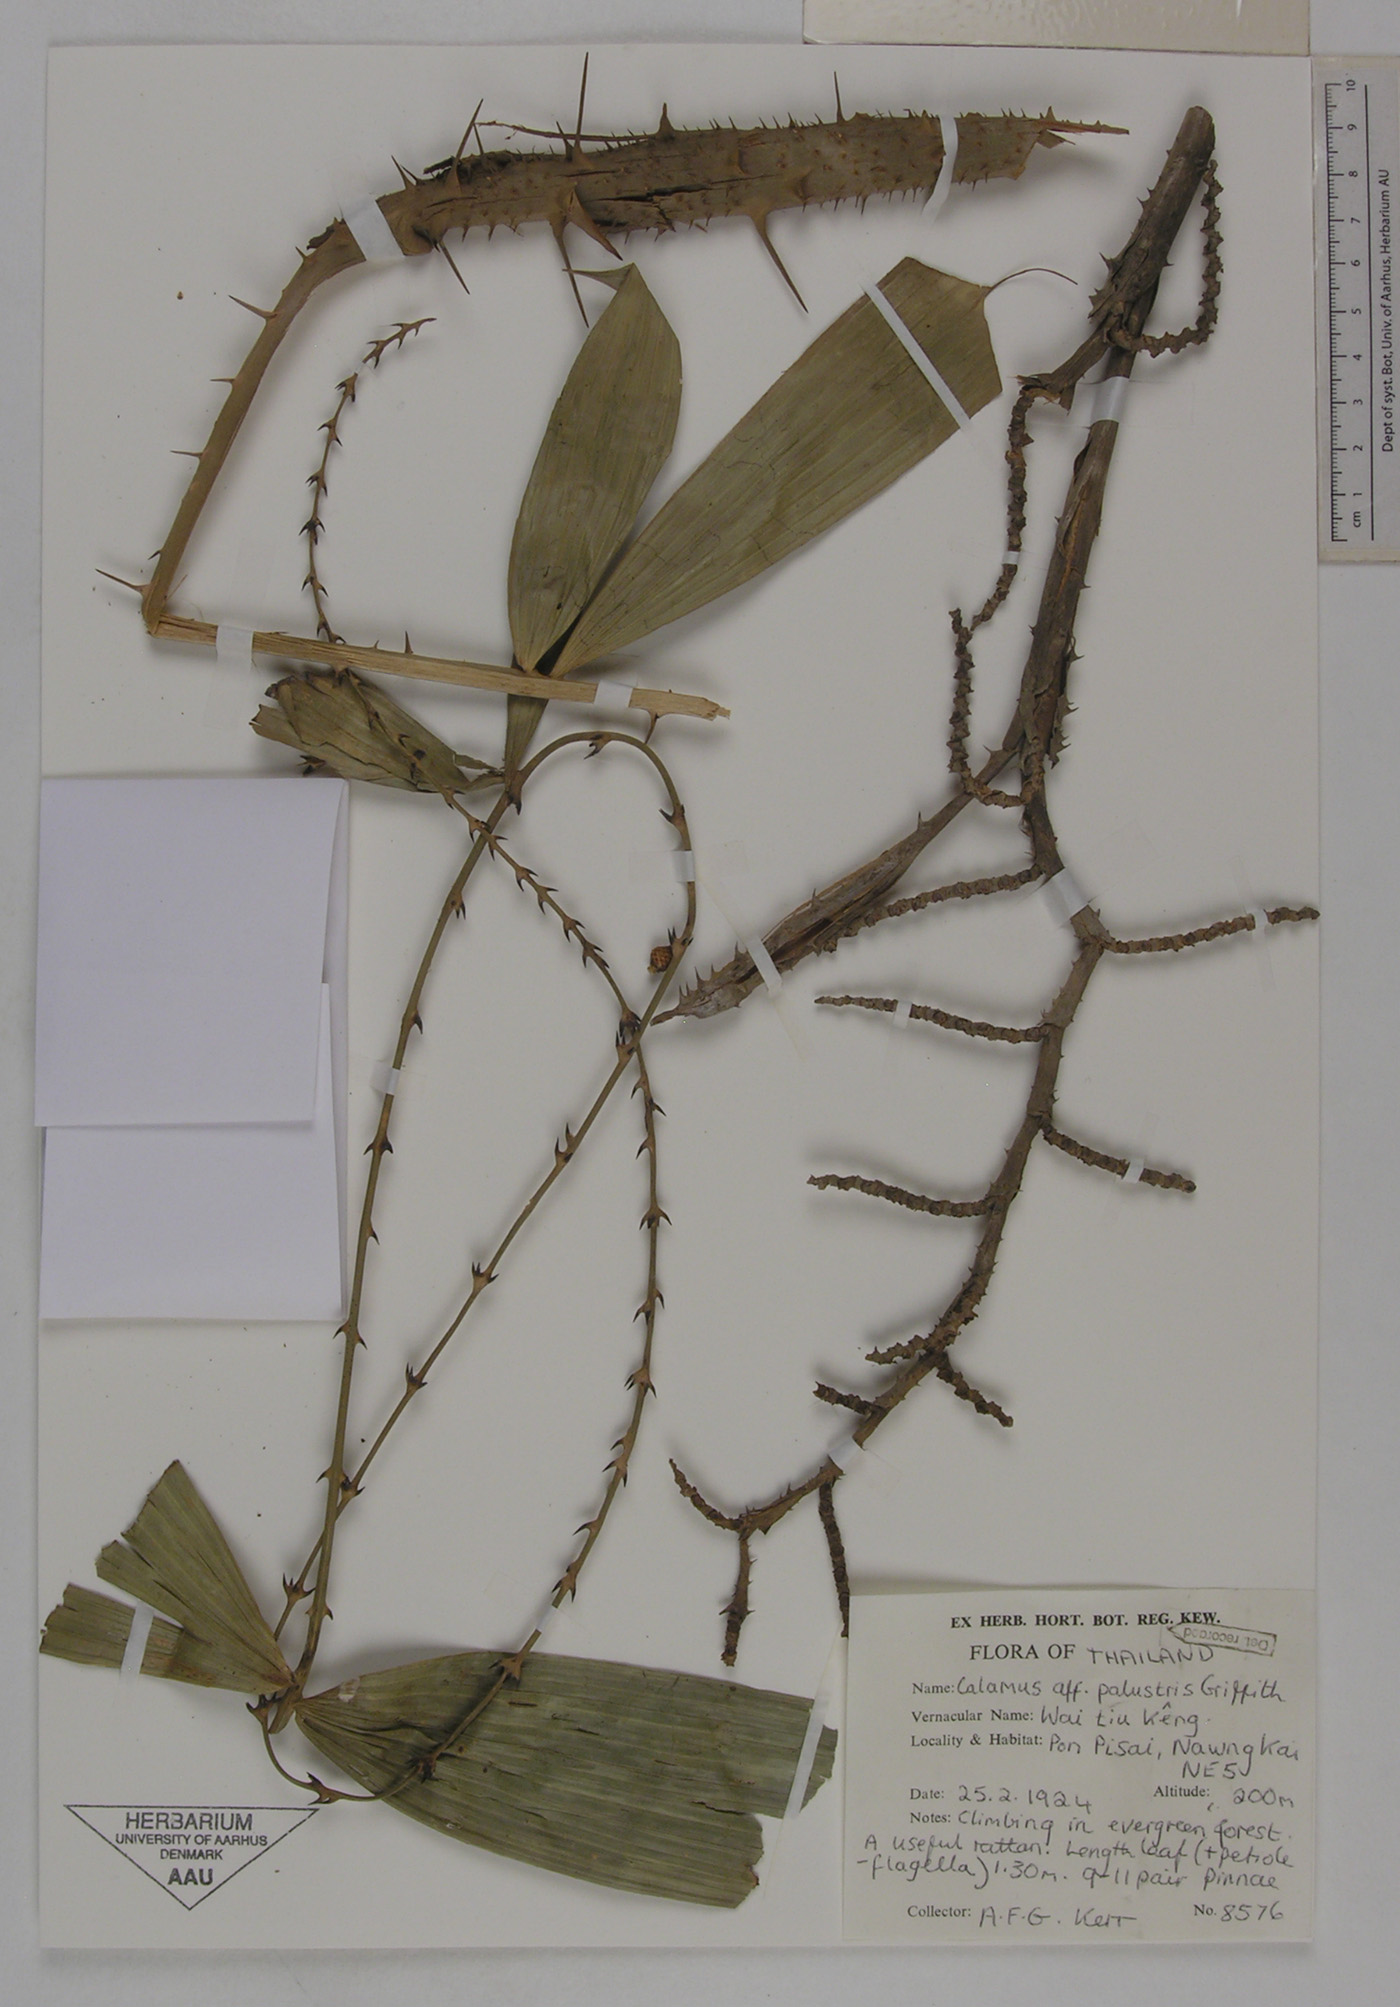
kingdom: Plantae
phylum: Tracheophyta
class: Liliopsida
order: Arecales
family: Arecaceae
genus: Calamus
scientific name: Calamus latifolius
